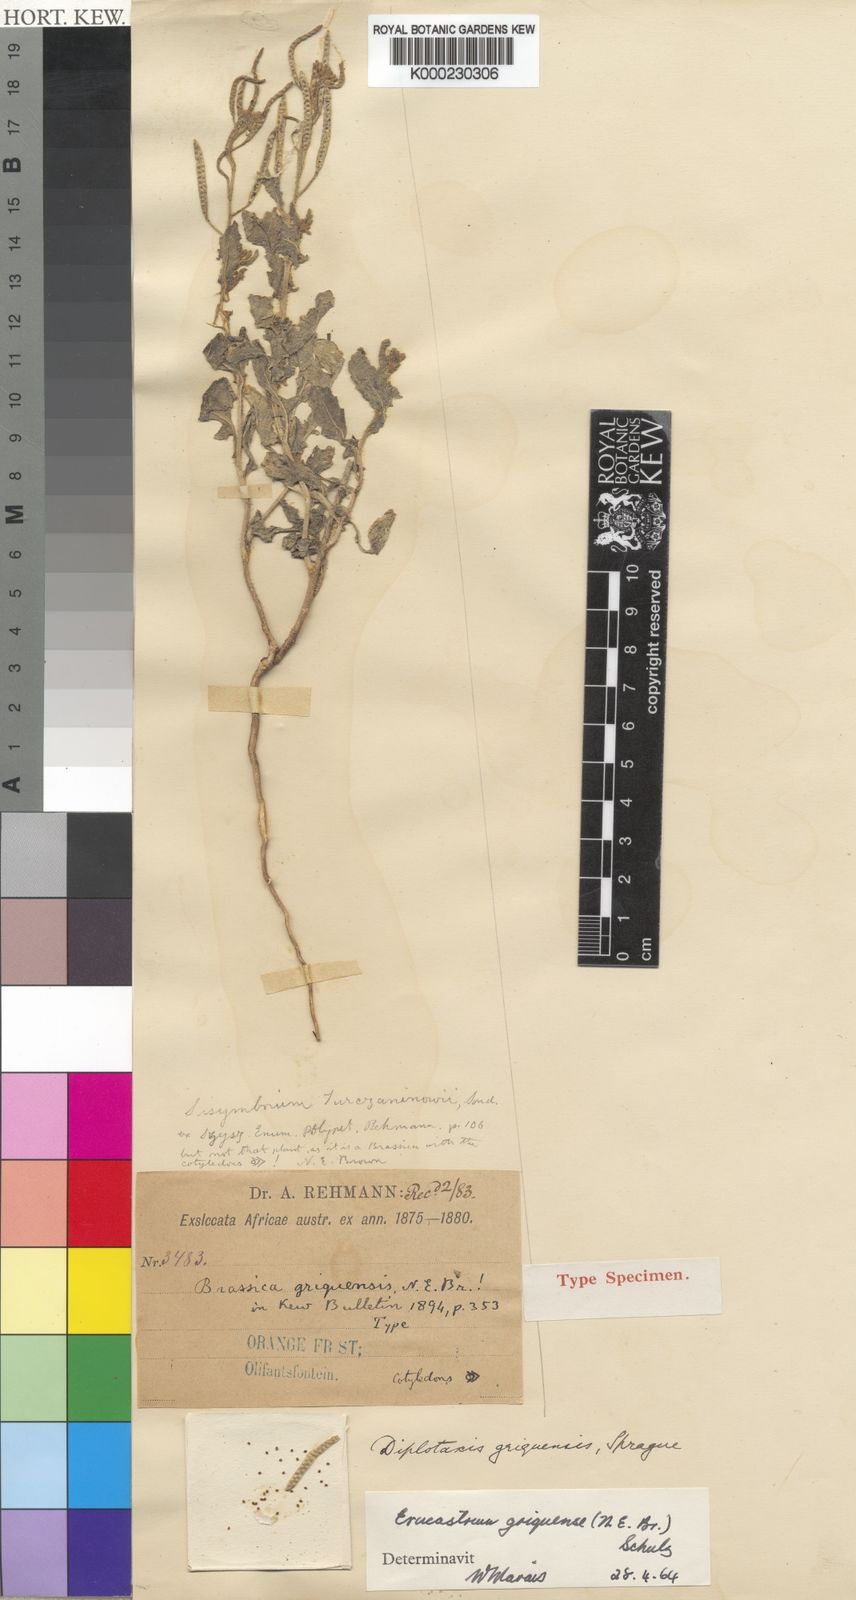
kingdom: Plantae
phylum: Tracheophyta
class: Magnoliopsida
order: Brassicales
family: Brassicaceae
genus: Erucastrum
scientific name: Erucastrum griquense
